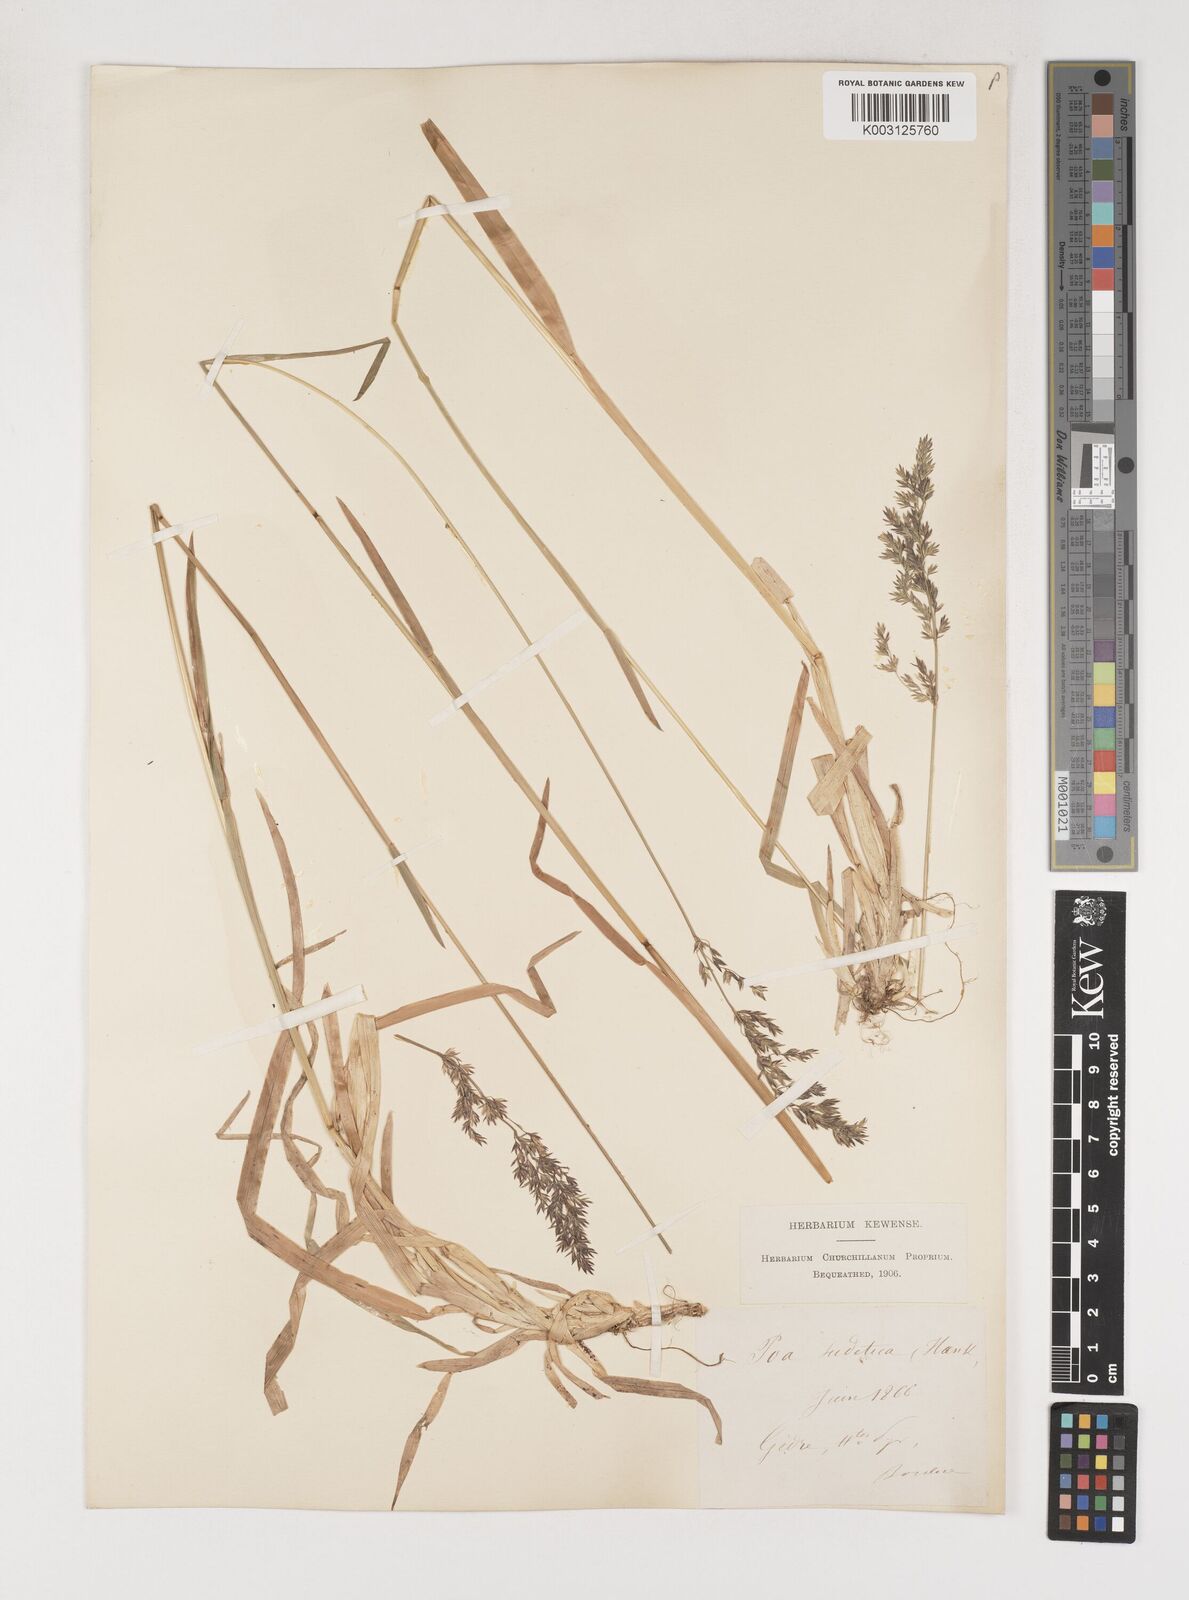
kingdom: Plantae
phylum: Tracheophyta
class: Liliopsida
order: Poales
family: Poaceae
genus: Poa
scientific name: Poa chaixii
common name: Broad-leaved meadow-grass
